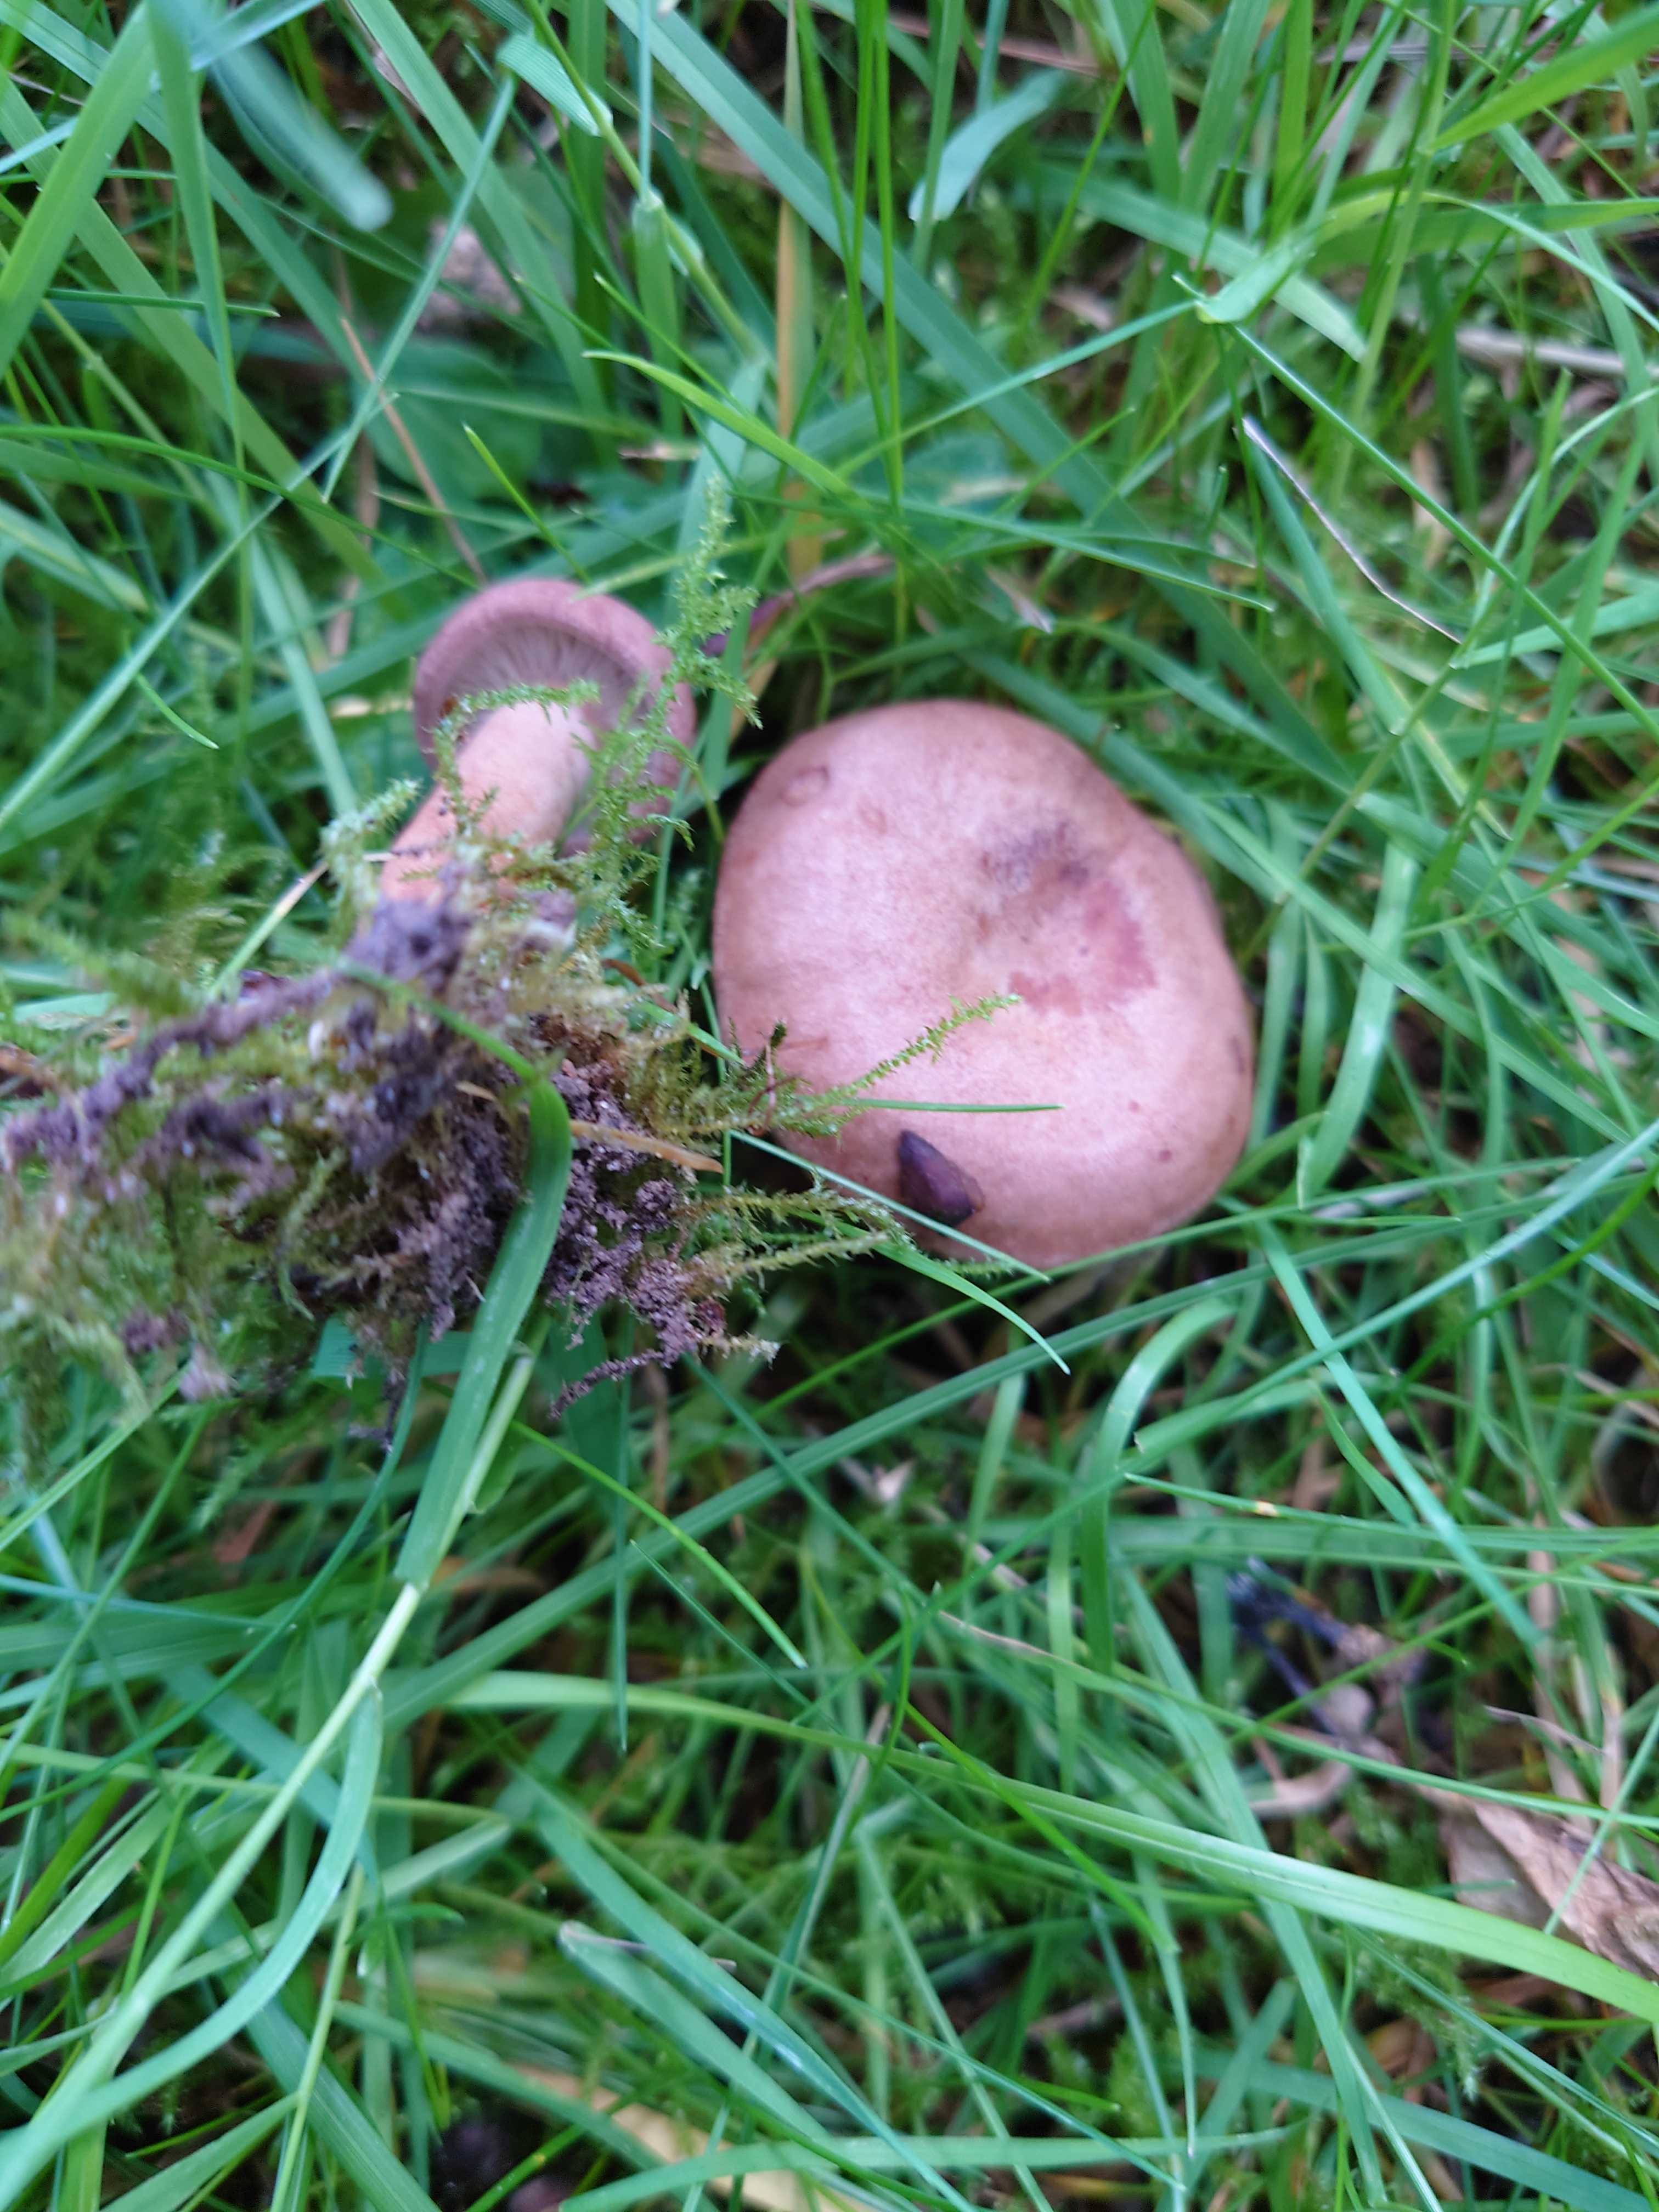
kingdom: Fungi
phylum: Basidiomycota
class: Agaricomycetes
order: Russulales
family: Russulaceae
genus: Lactarius
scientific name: Lactarius quietus
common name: ege-mælkehat
